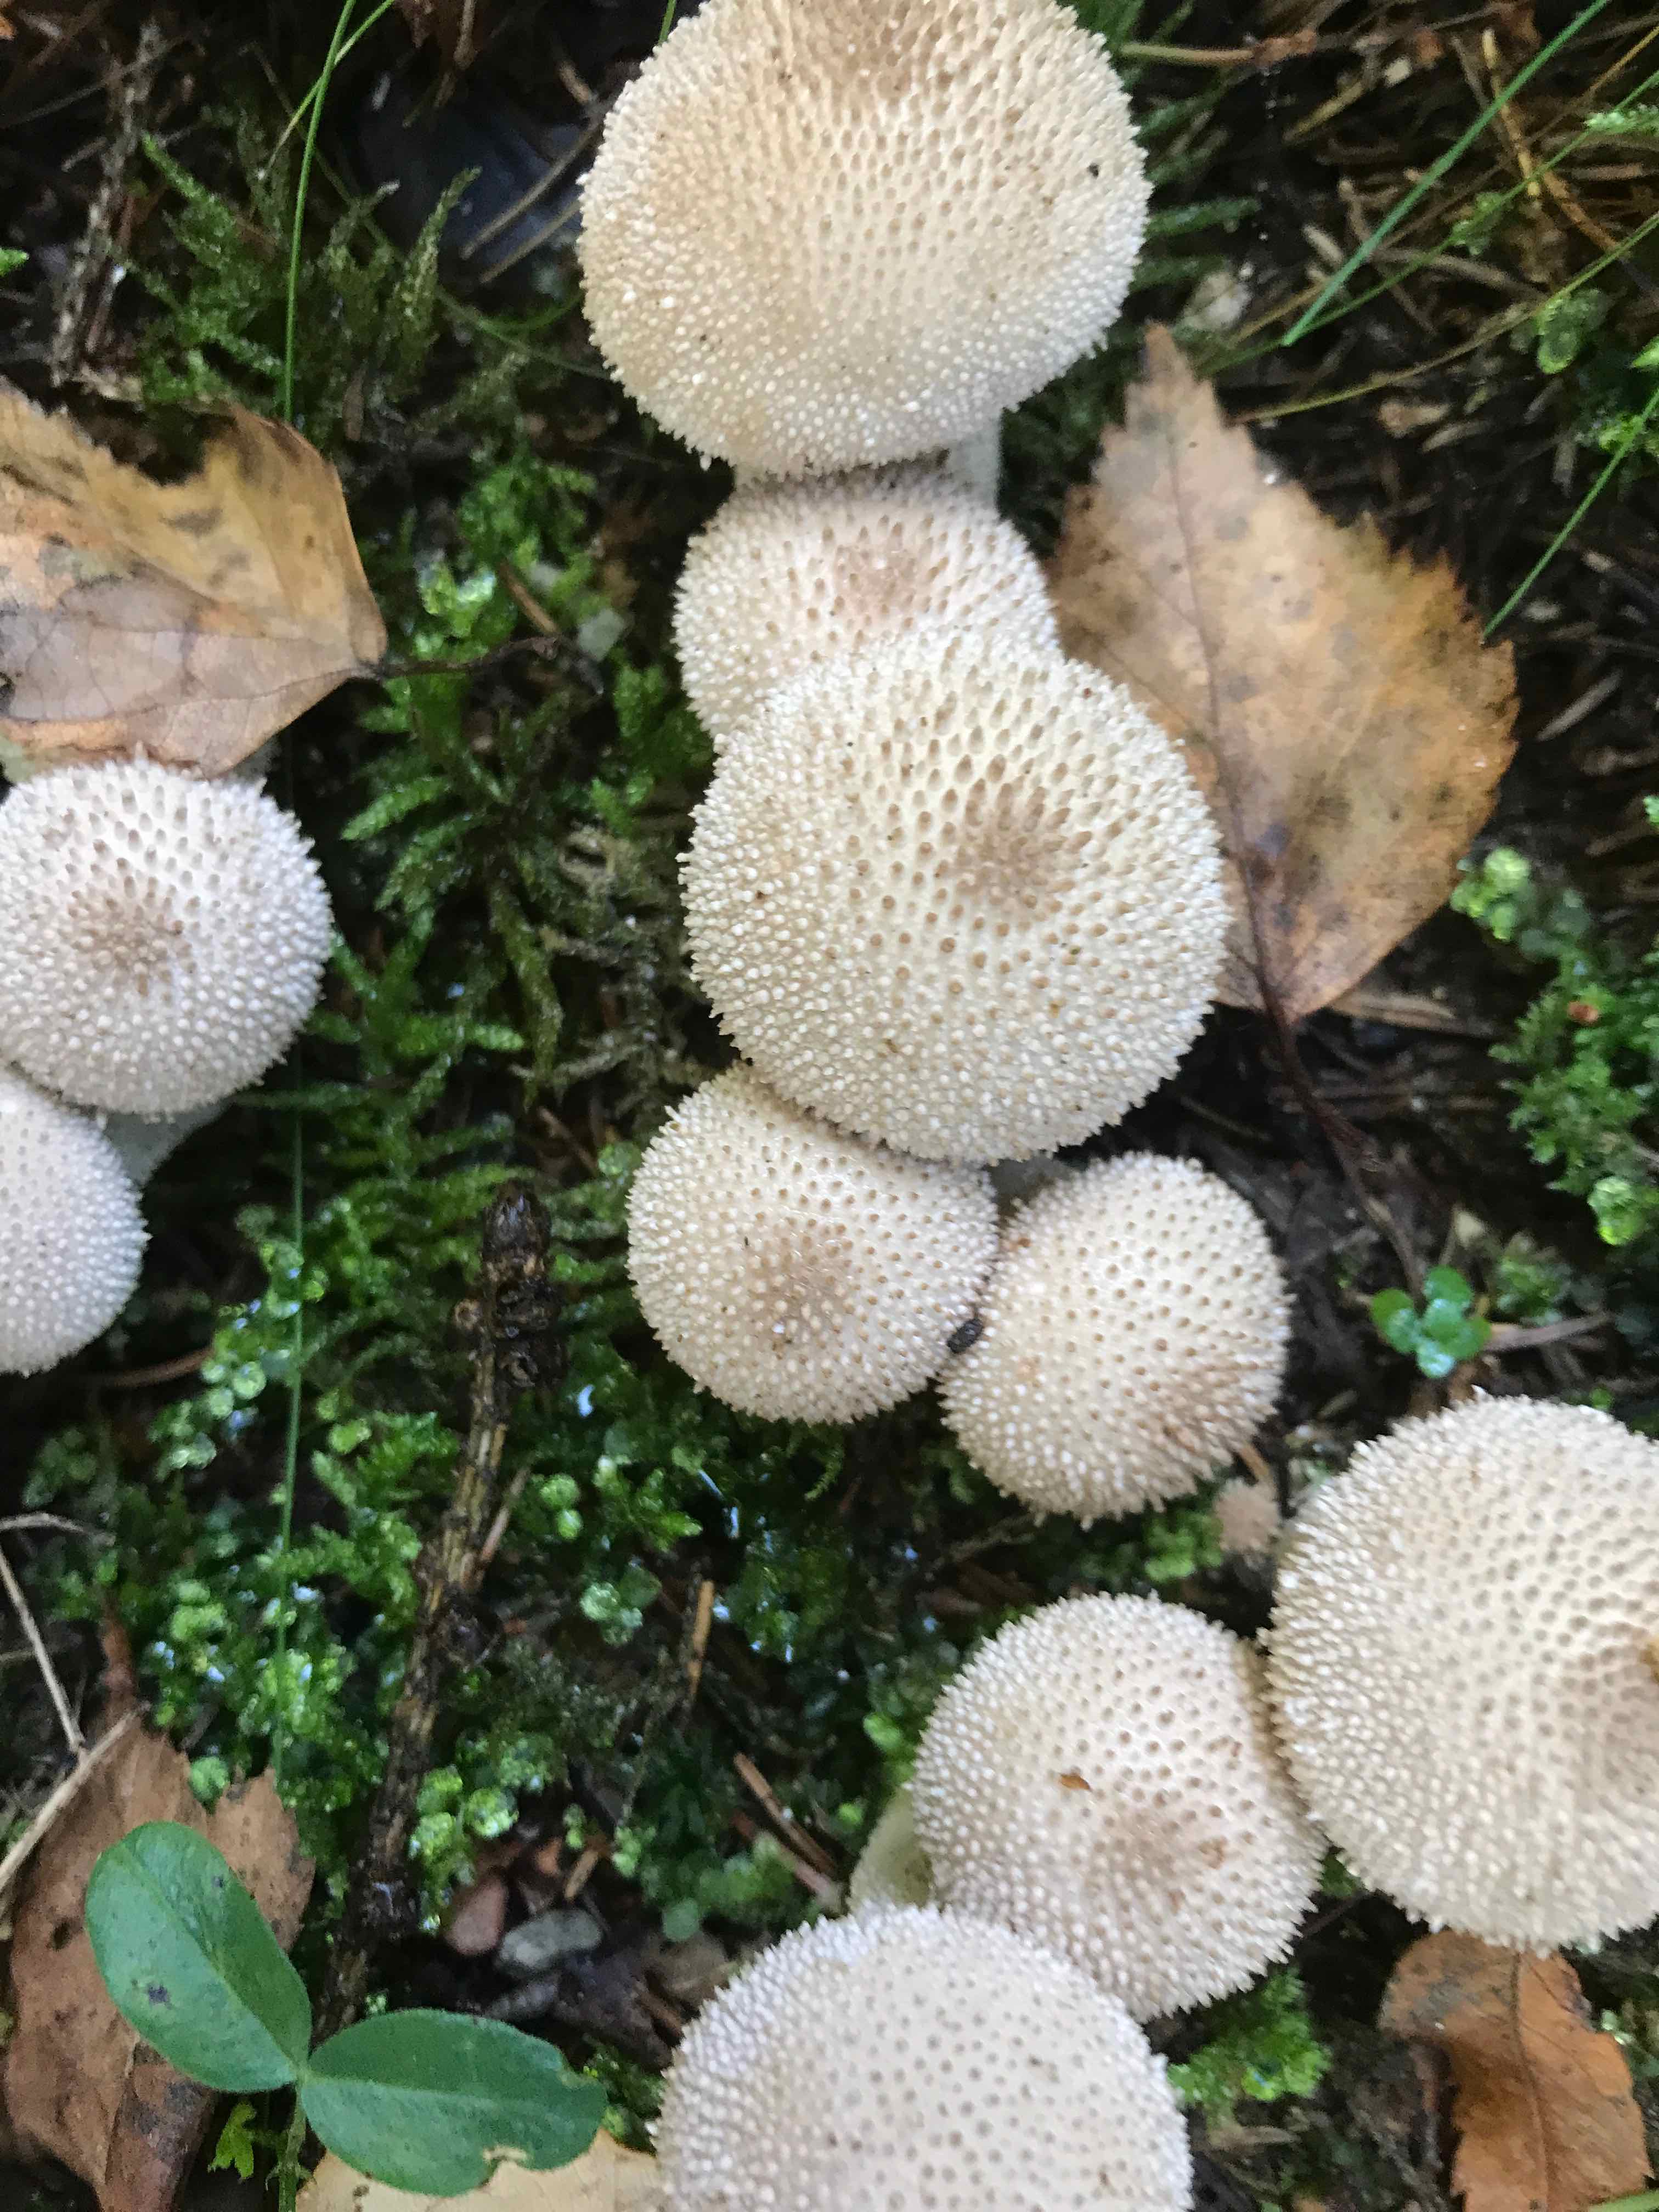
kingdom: Fungi
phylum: Basidiomycota
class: Agaricomycetes
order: Agaricales
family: Lycoperdaceae
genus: Lycoperdon
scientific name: Lycoperdon perlatum
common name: krystal-støvbold
